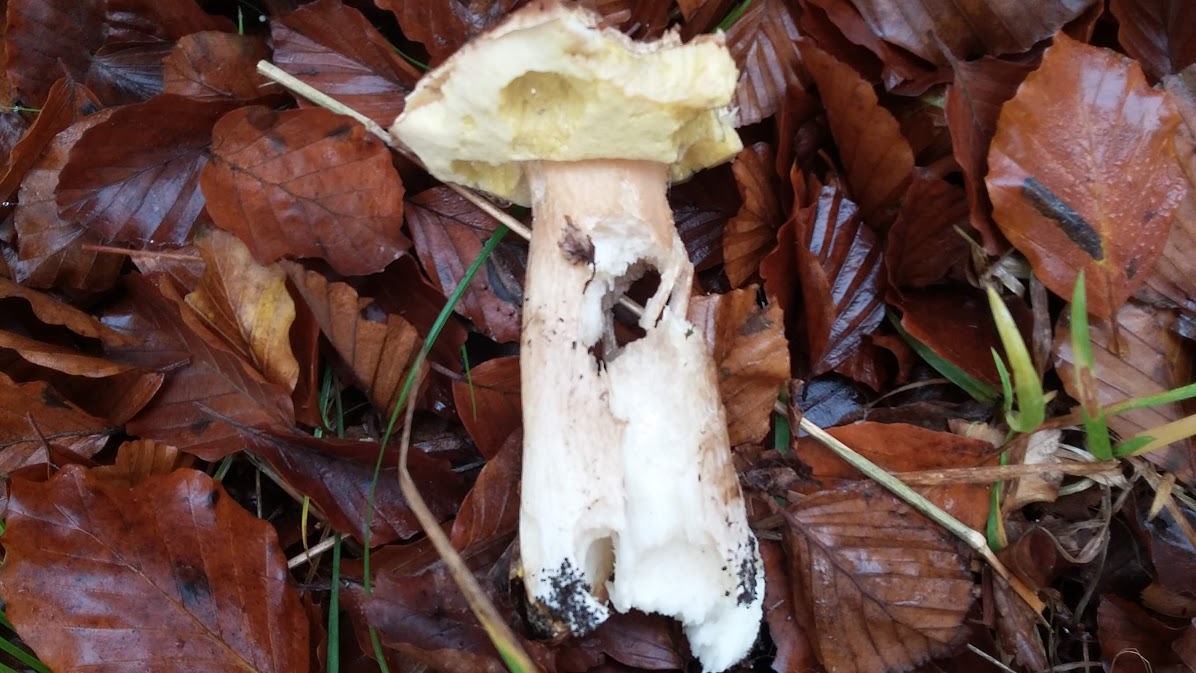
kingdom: Fungi
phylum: Basidiomycota
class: Agaricomycetes
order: Boletales
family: Boletaceae
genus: Boletus
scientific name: Boletus edulis
